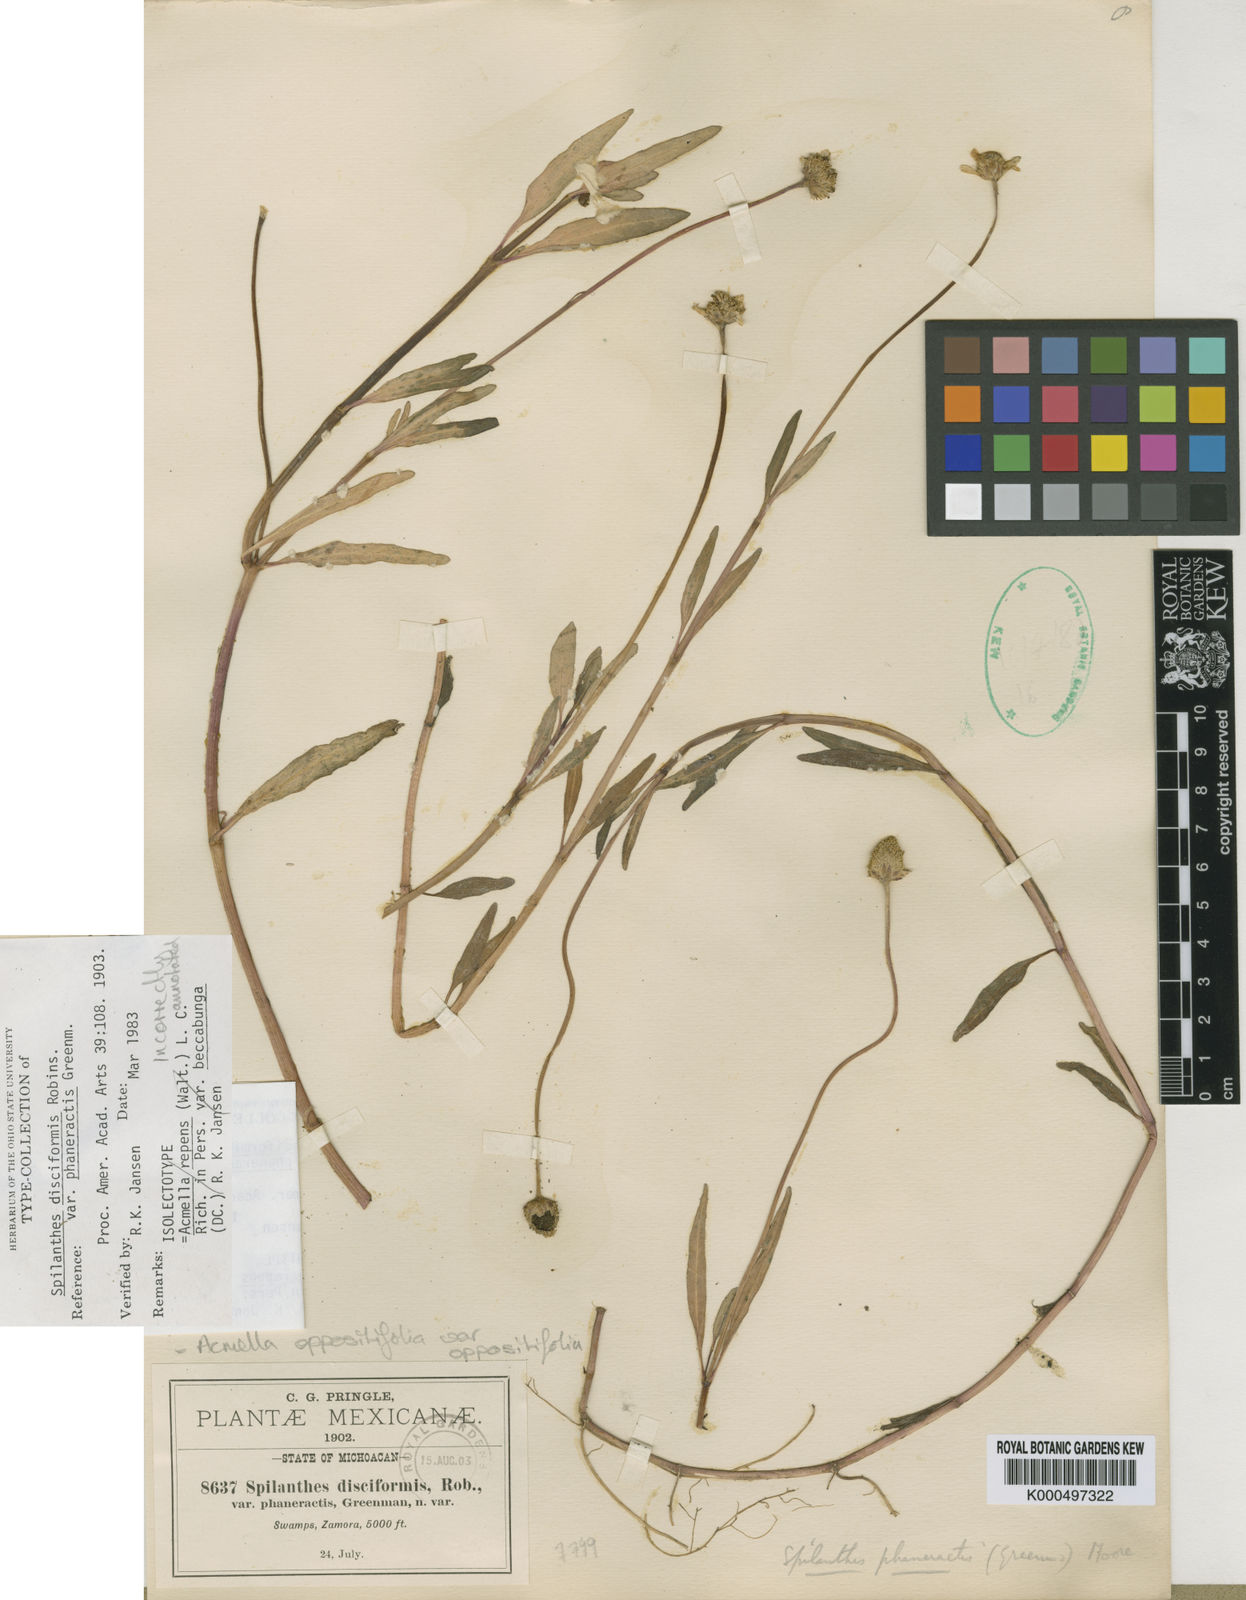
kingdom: Plantae
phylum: Tracheophyta
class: Magnoliopsida
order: Asterales
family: Asteraceae
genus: Heliopsis
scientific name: Heliopsis buphthalmoides
